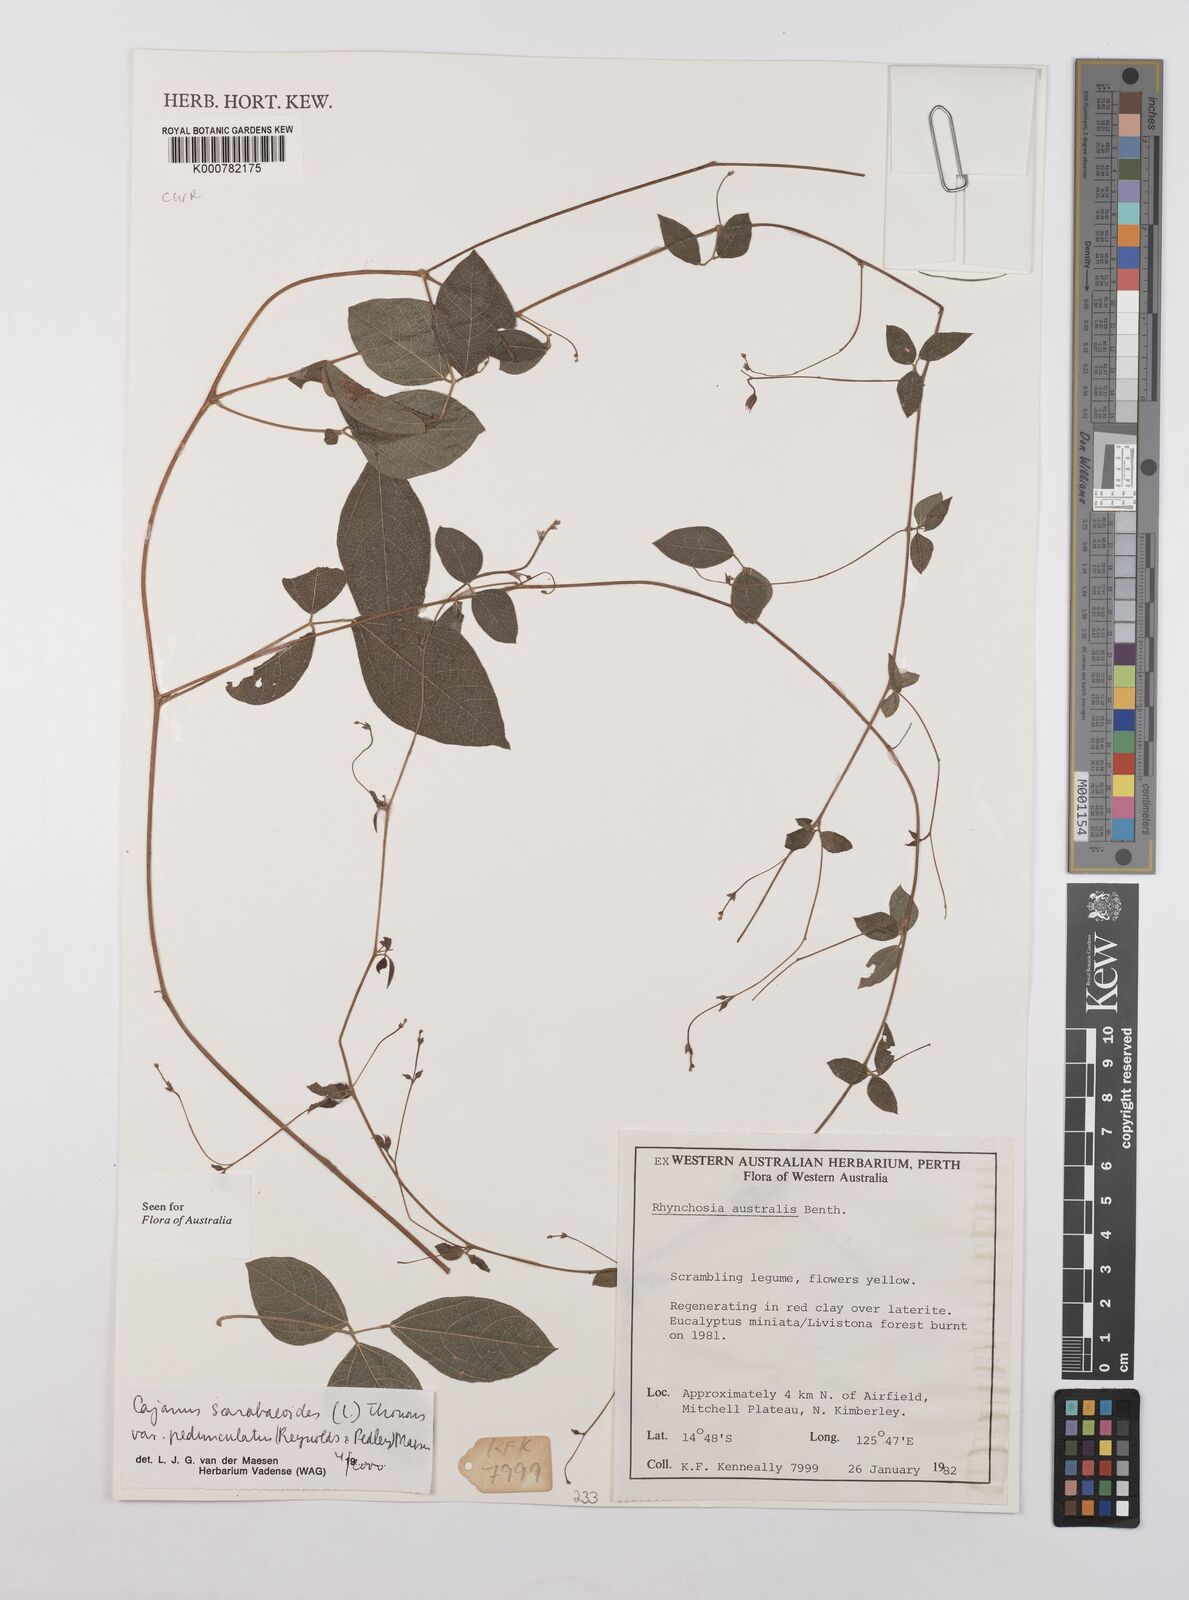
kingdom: Plantae
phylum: Tracheophyta
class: Magnoliopsida
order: Fabales
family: Fabaceae
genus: Cajanus
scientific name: Cajanus scarabaeoides
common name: Showy pigeonpea
